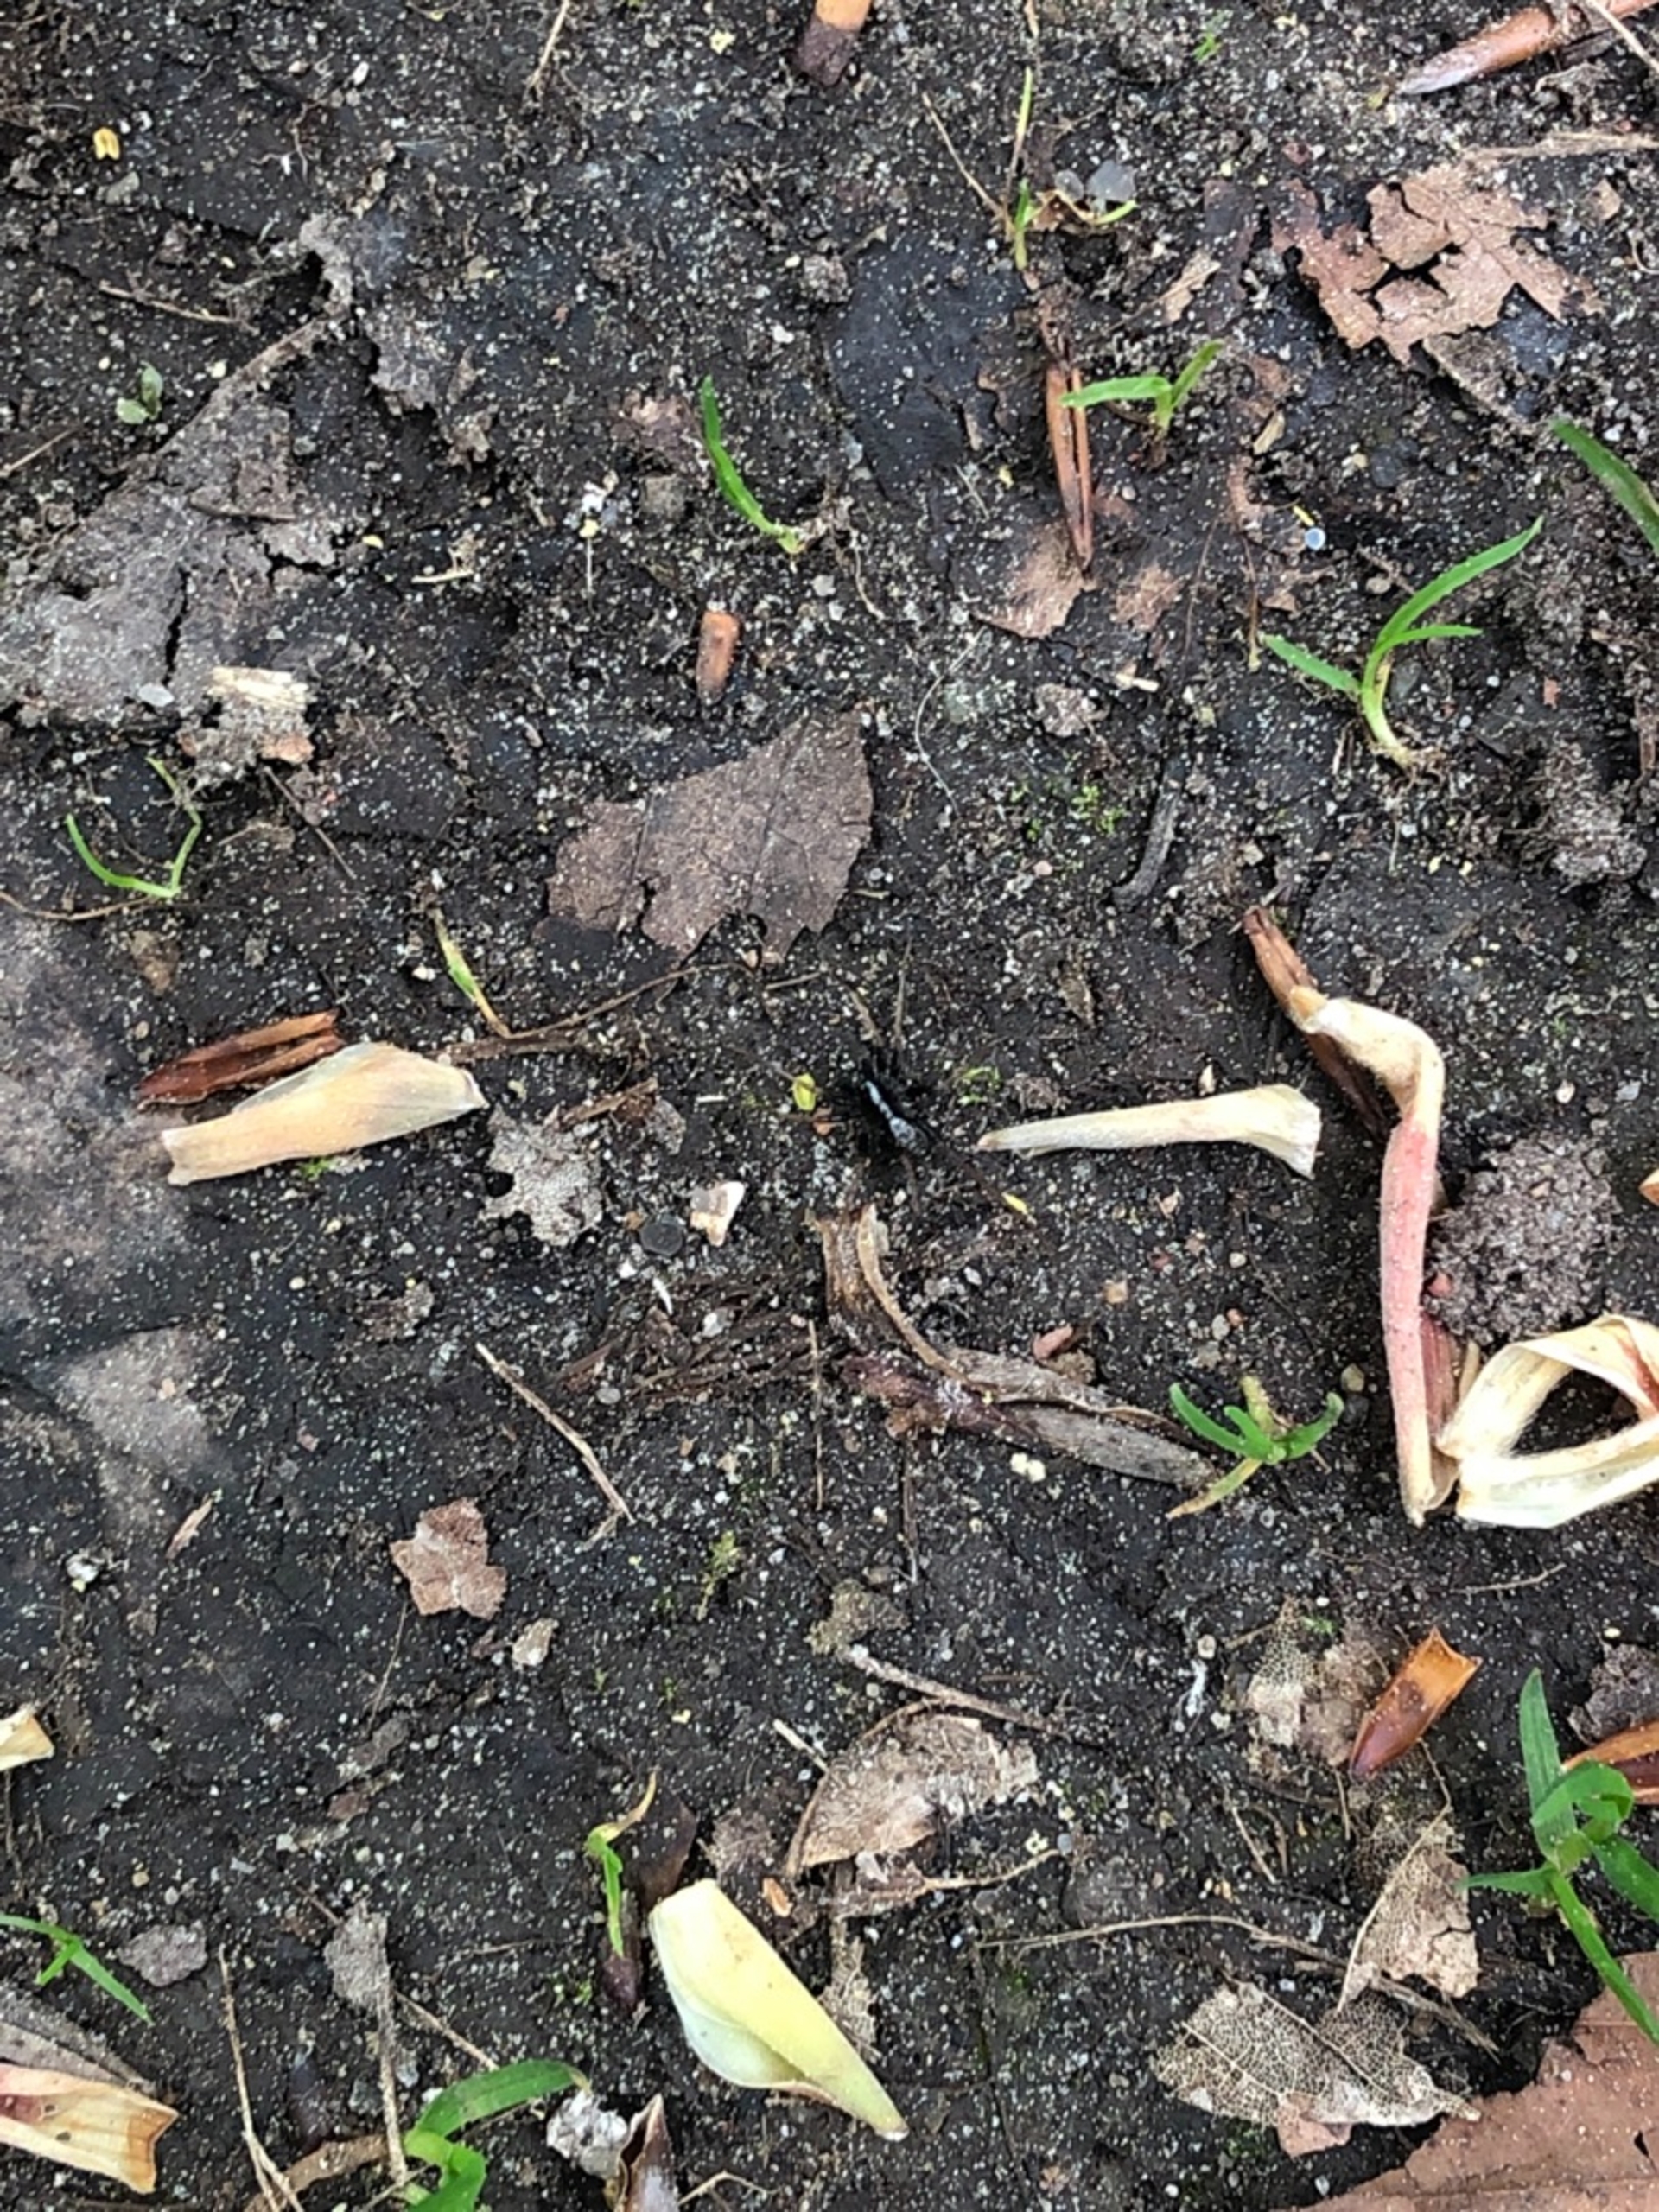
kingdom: Animalia
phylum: Arthropoda
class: Arachnida
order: Araneae
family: Lycosidae
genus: Pardosa
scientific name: Pardosa
